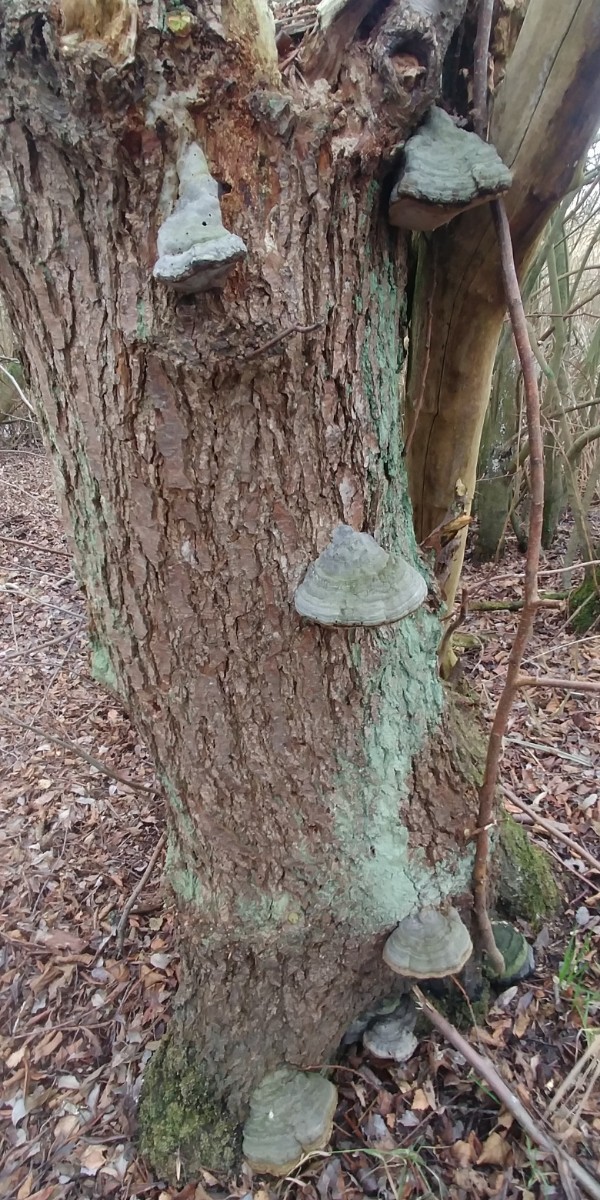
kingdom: Fungi
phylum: Basidiomycota
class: Agaricomycetes
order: Polyporales
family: Polyporaceae
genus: Fomes
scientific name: Fomes fomentarius
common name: tøndersvamp
